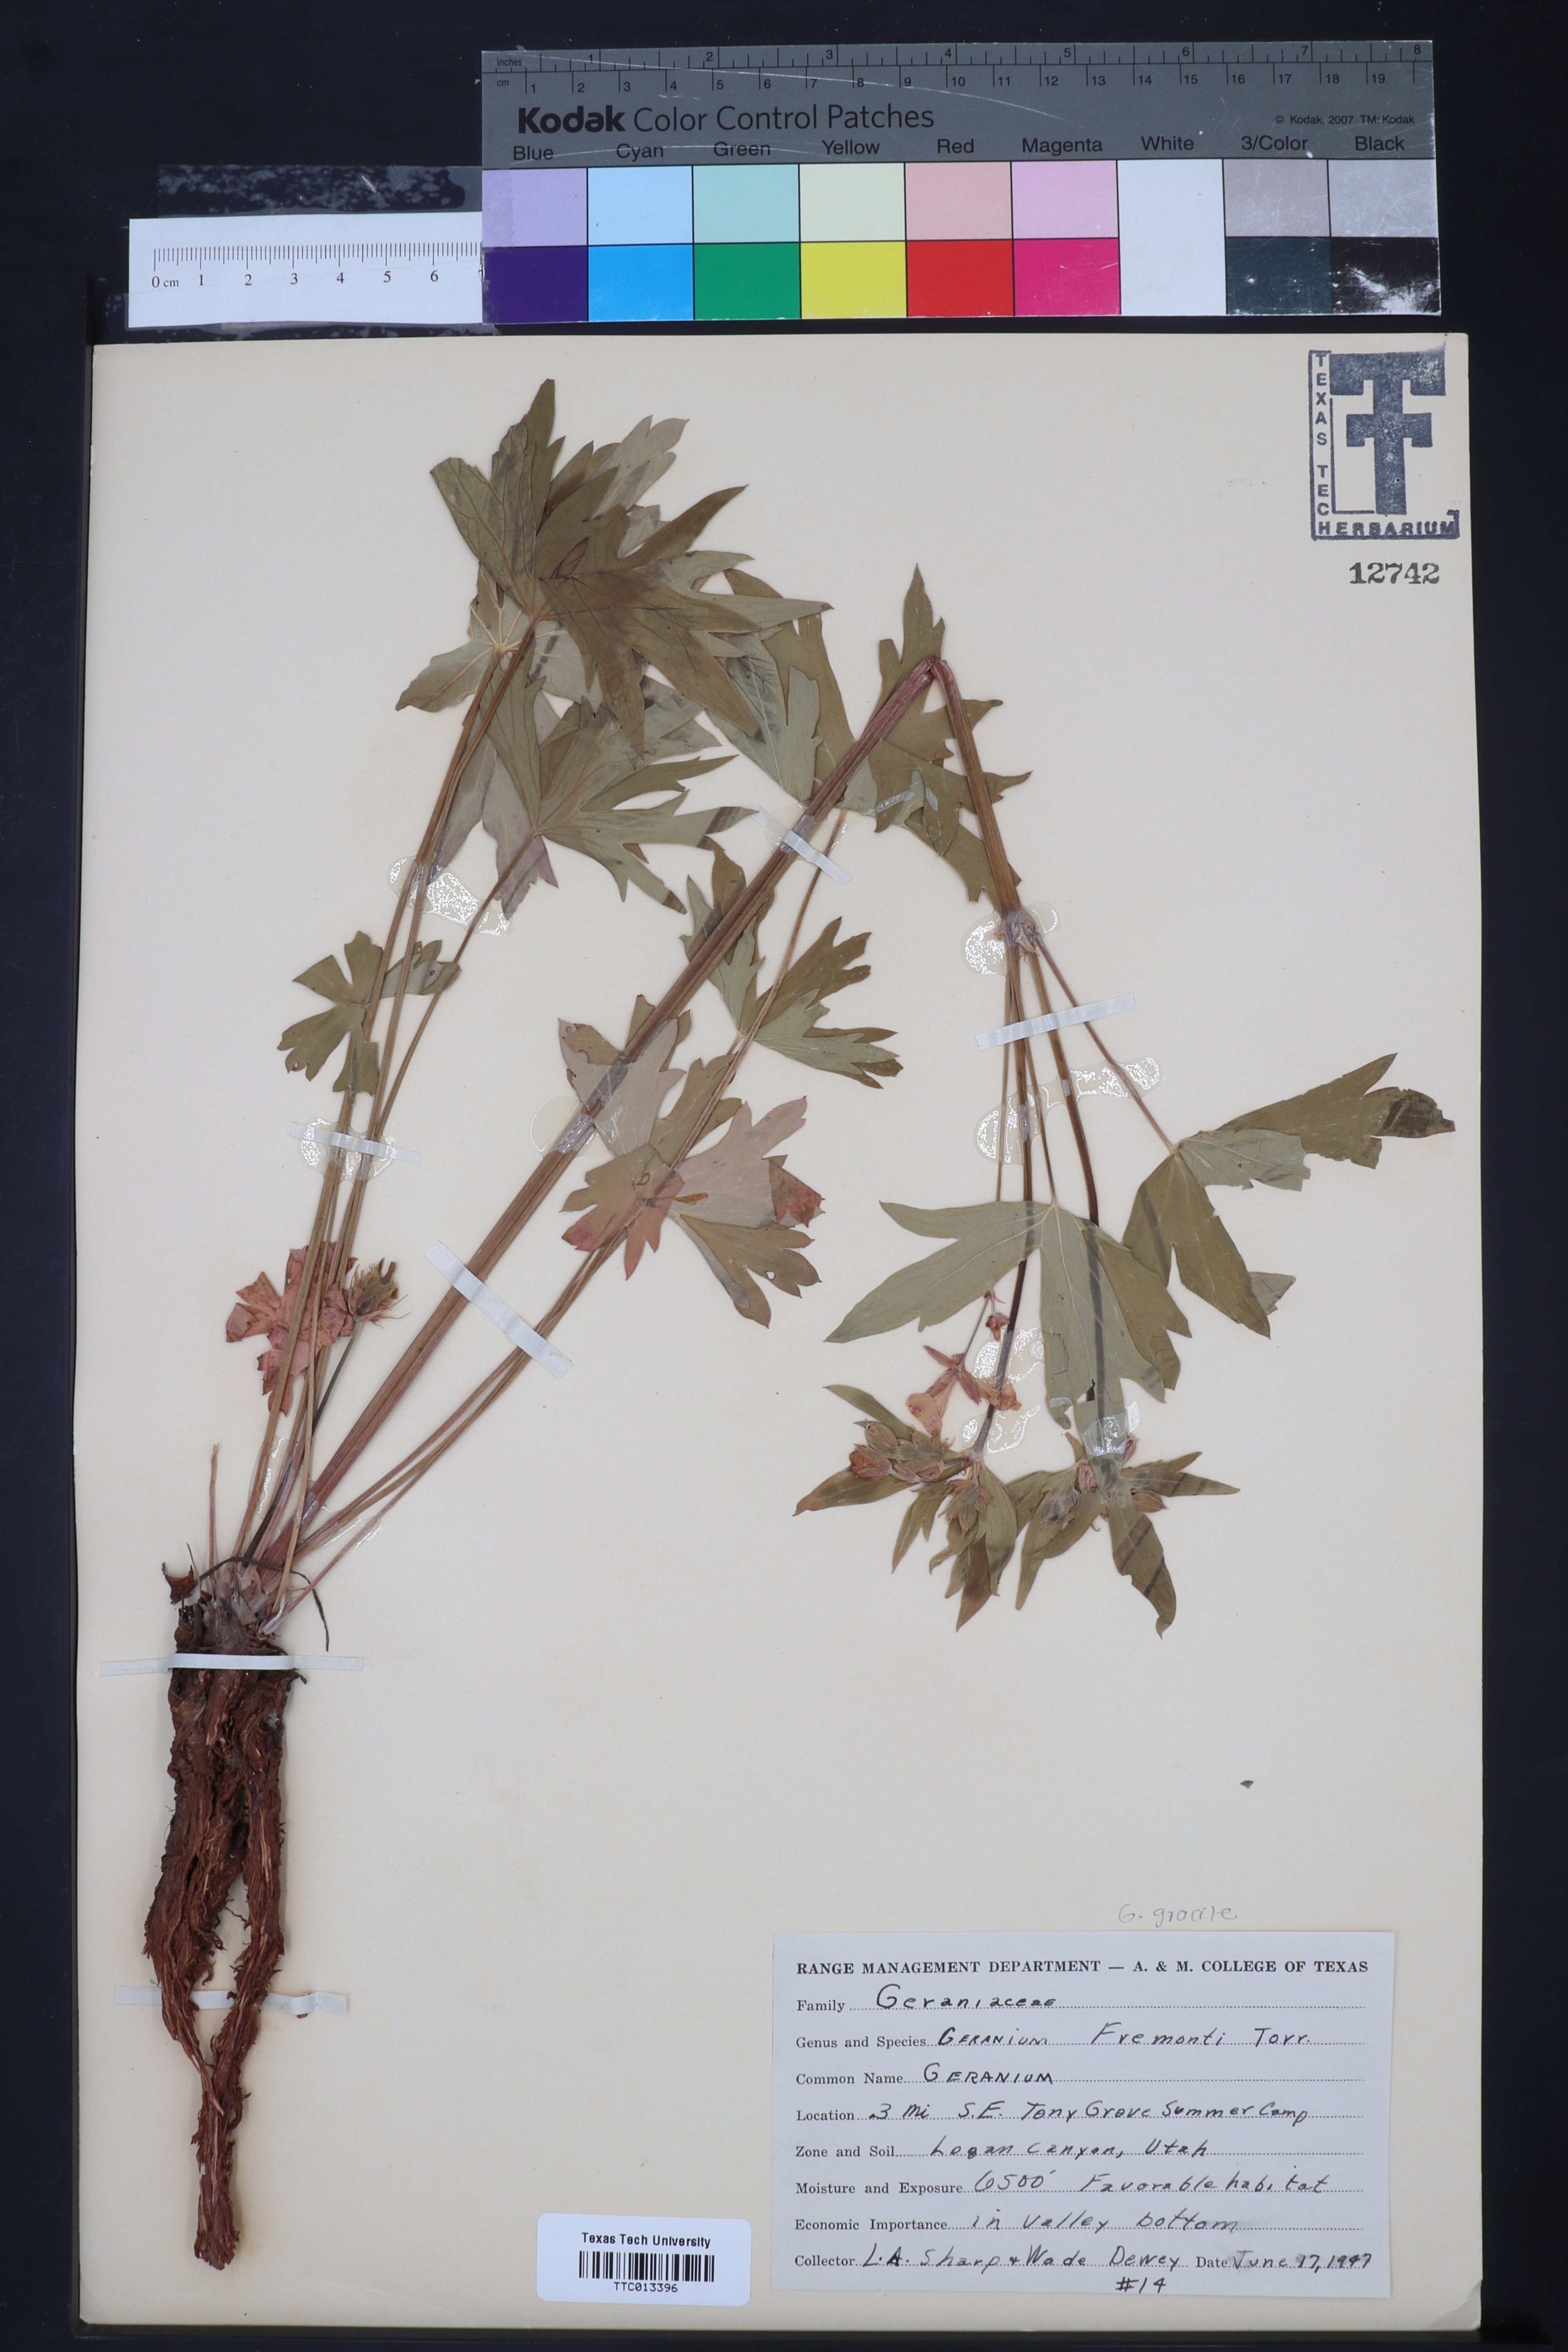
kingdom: Plantae
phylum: Tracheophyta
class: Magnoliopsida
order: Geraniales
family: Geraniaceae
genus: Geranium
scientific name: Geranium caespitosum
